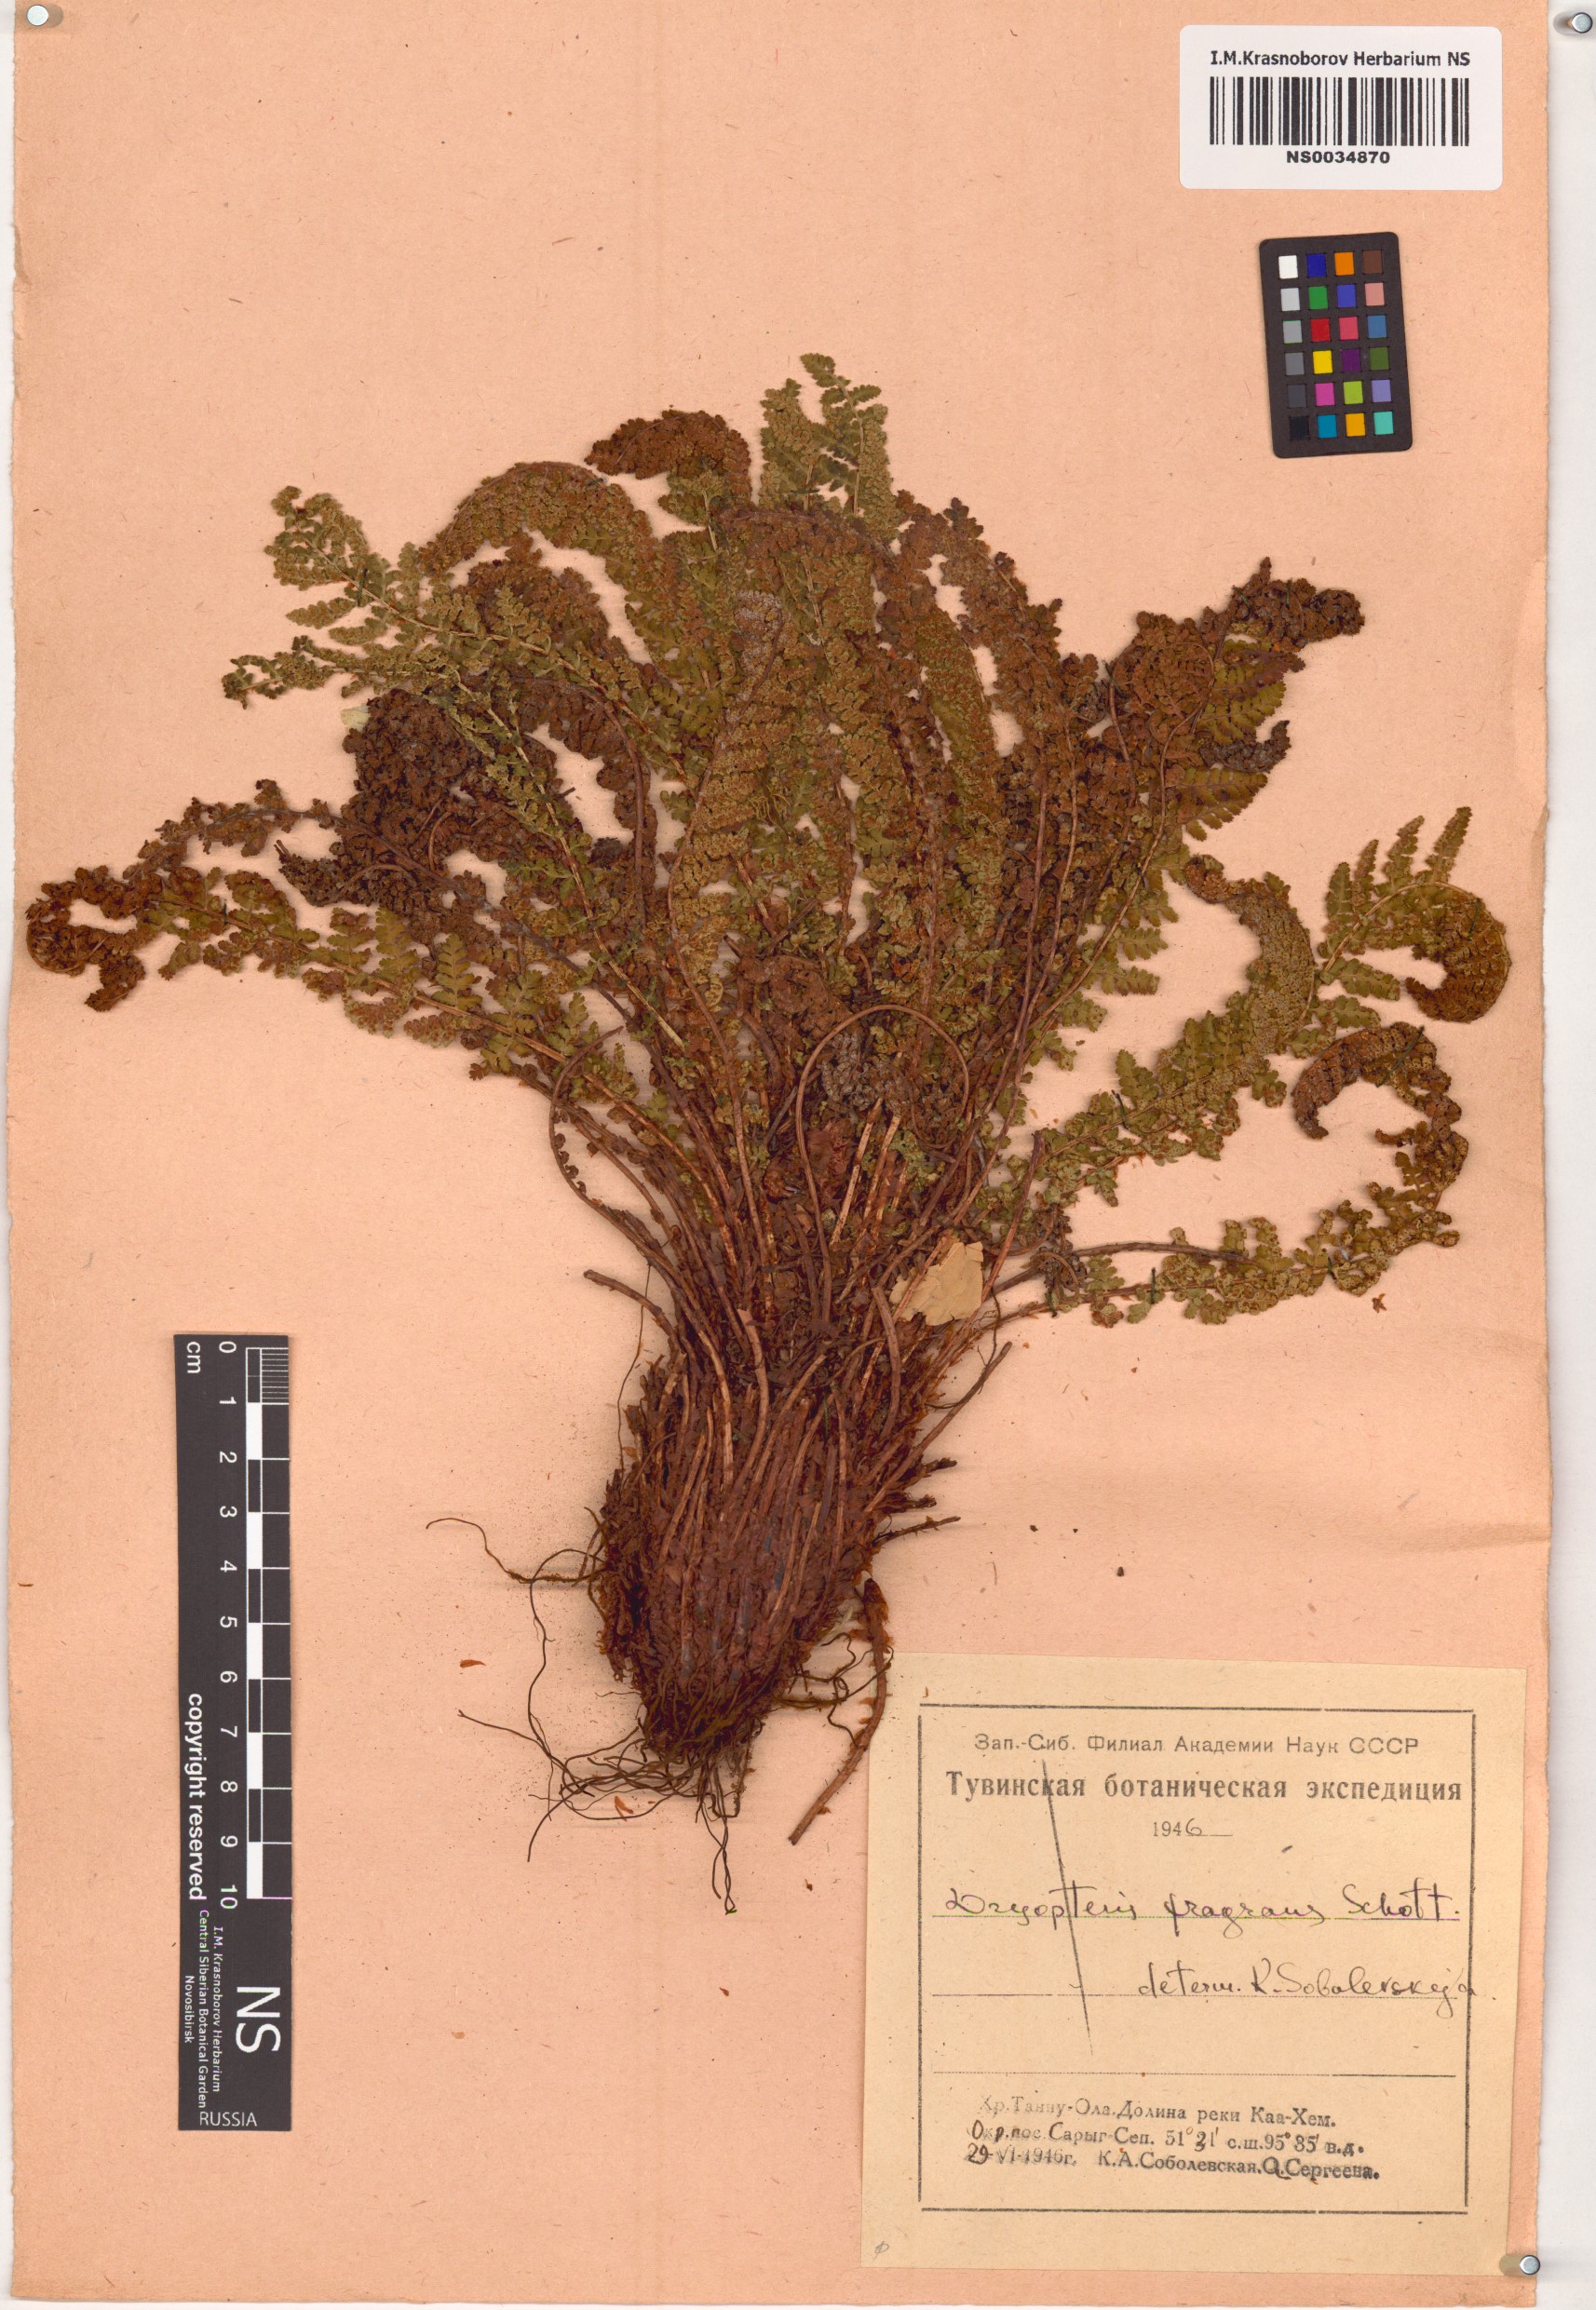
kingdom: Plantae
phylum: Tracheophyta
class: Polypodiopsida
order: Polypodiales
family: Dryopteridaceae
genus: Dryopteris
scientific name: Dryopteris fragrans
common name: Fragrant wood fern
